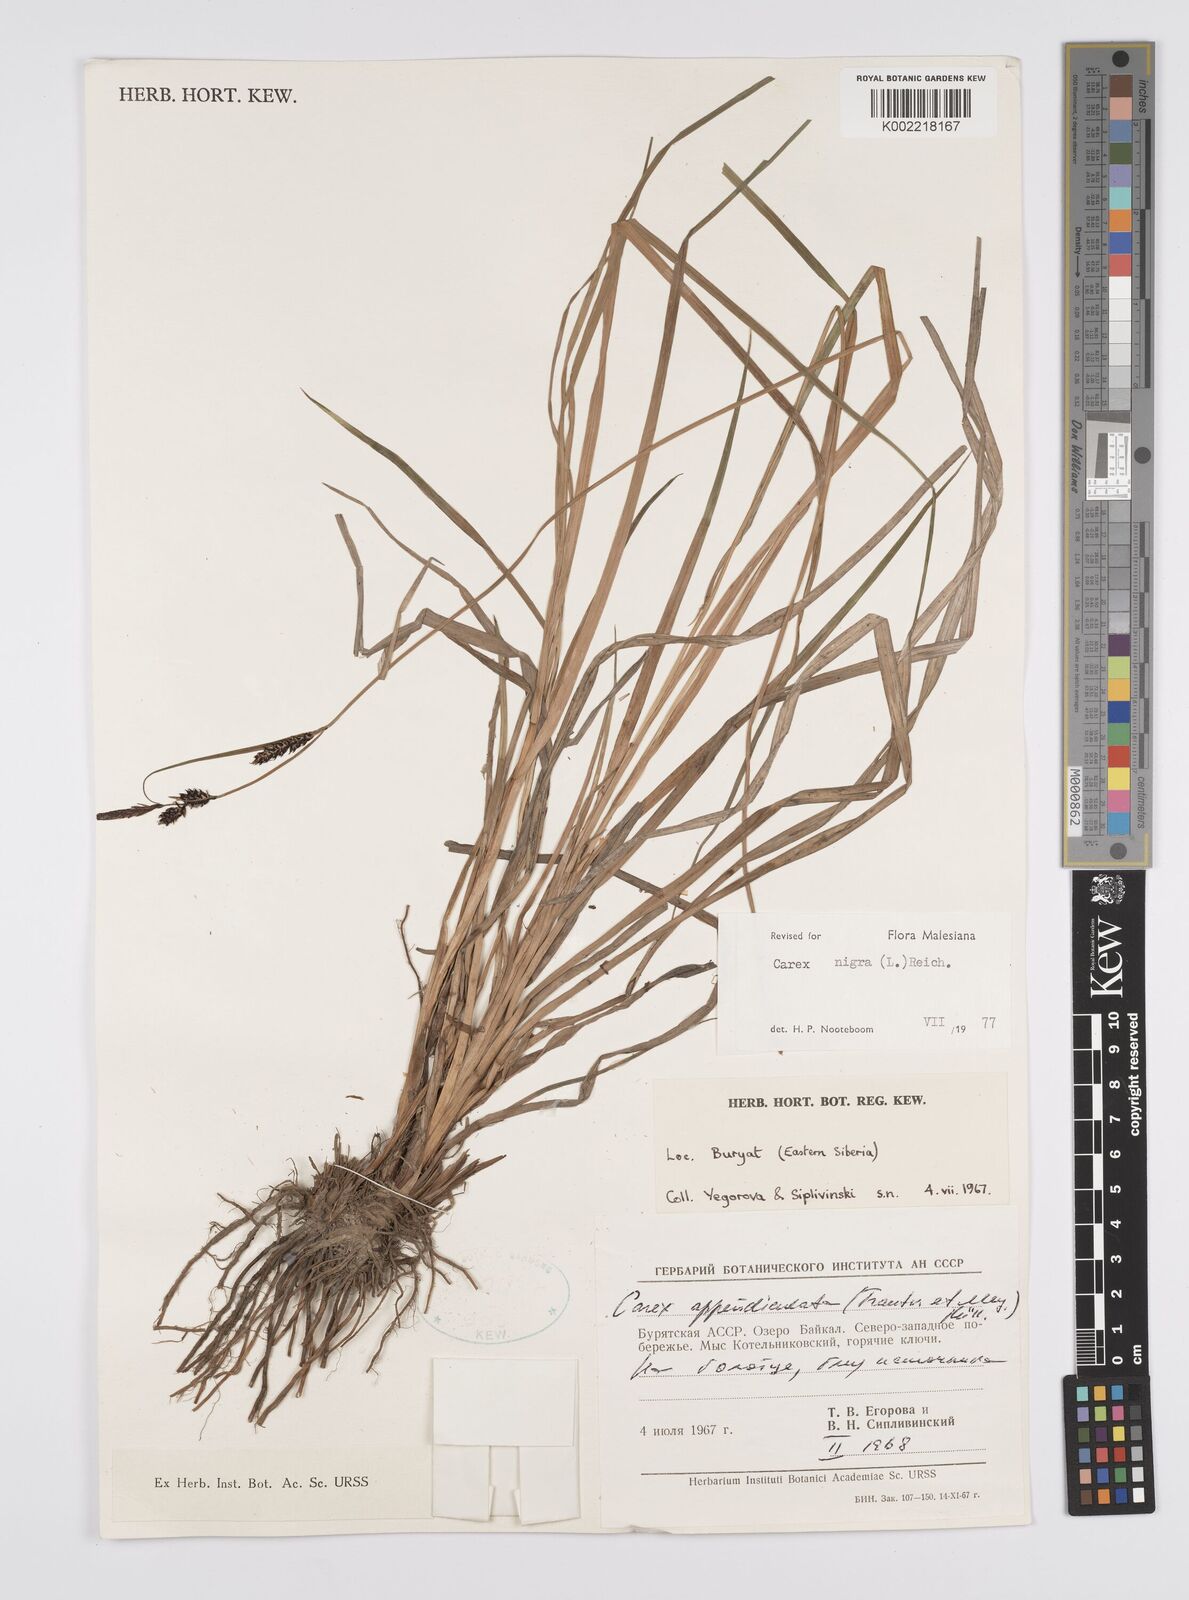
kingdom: Plantae
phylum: Tracheophyta
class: Liliopsida
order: Poales
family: Cyperaceae
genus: Carex
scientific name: Carex nigra
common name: Common sedge
